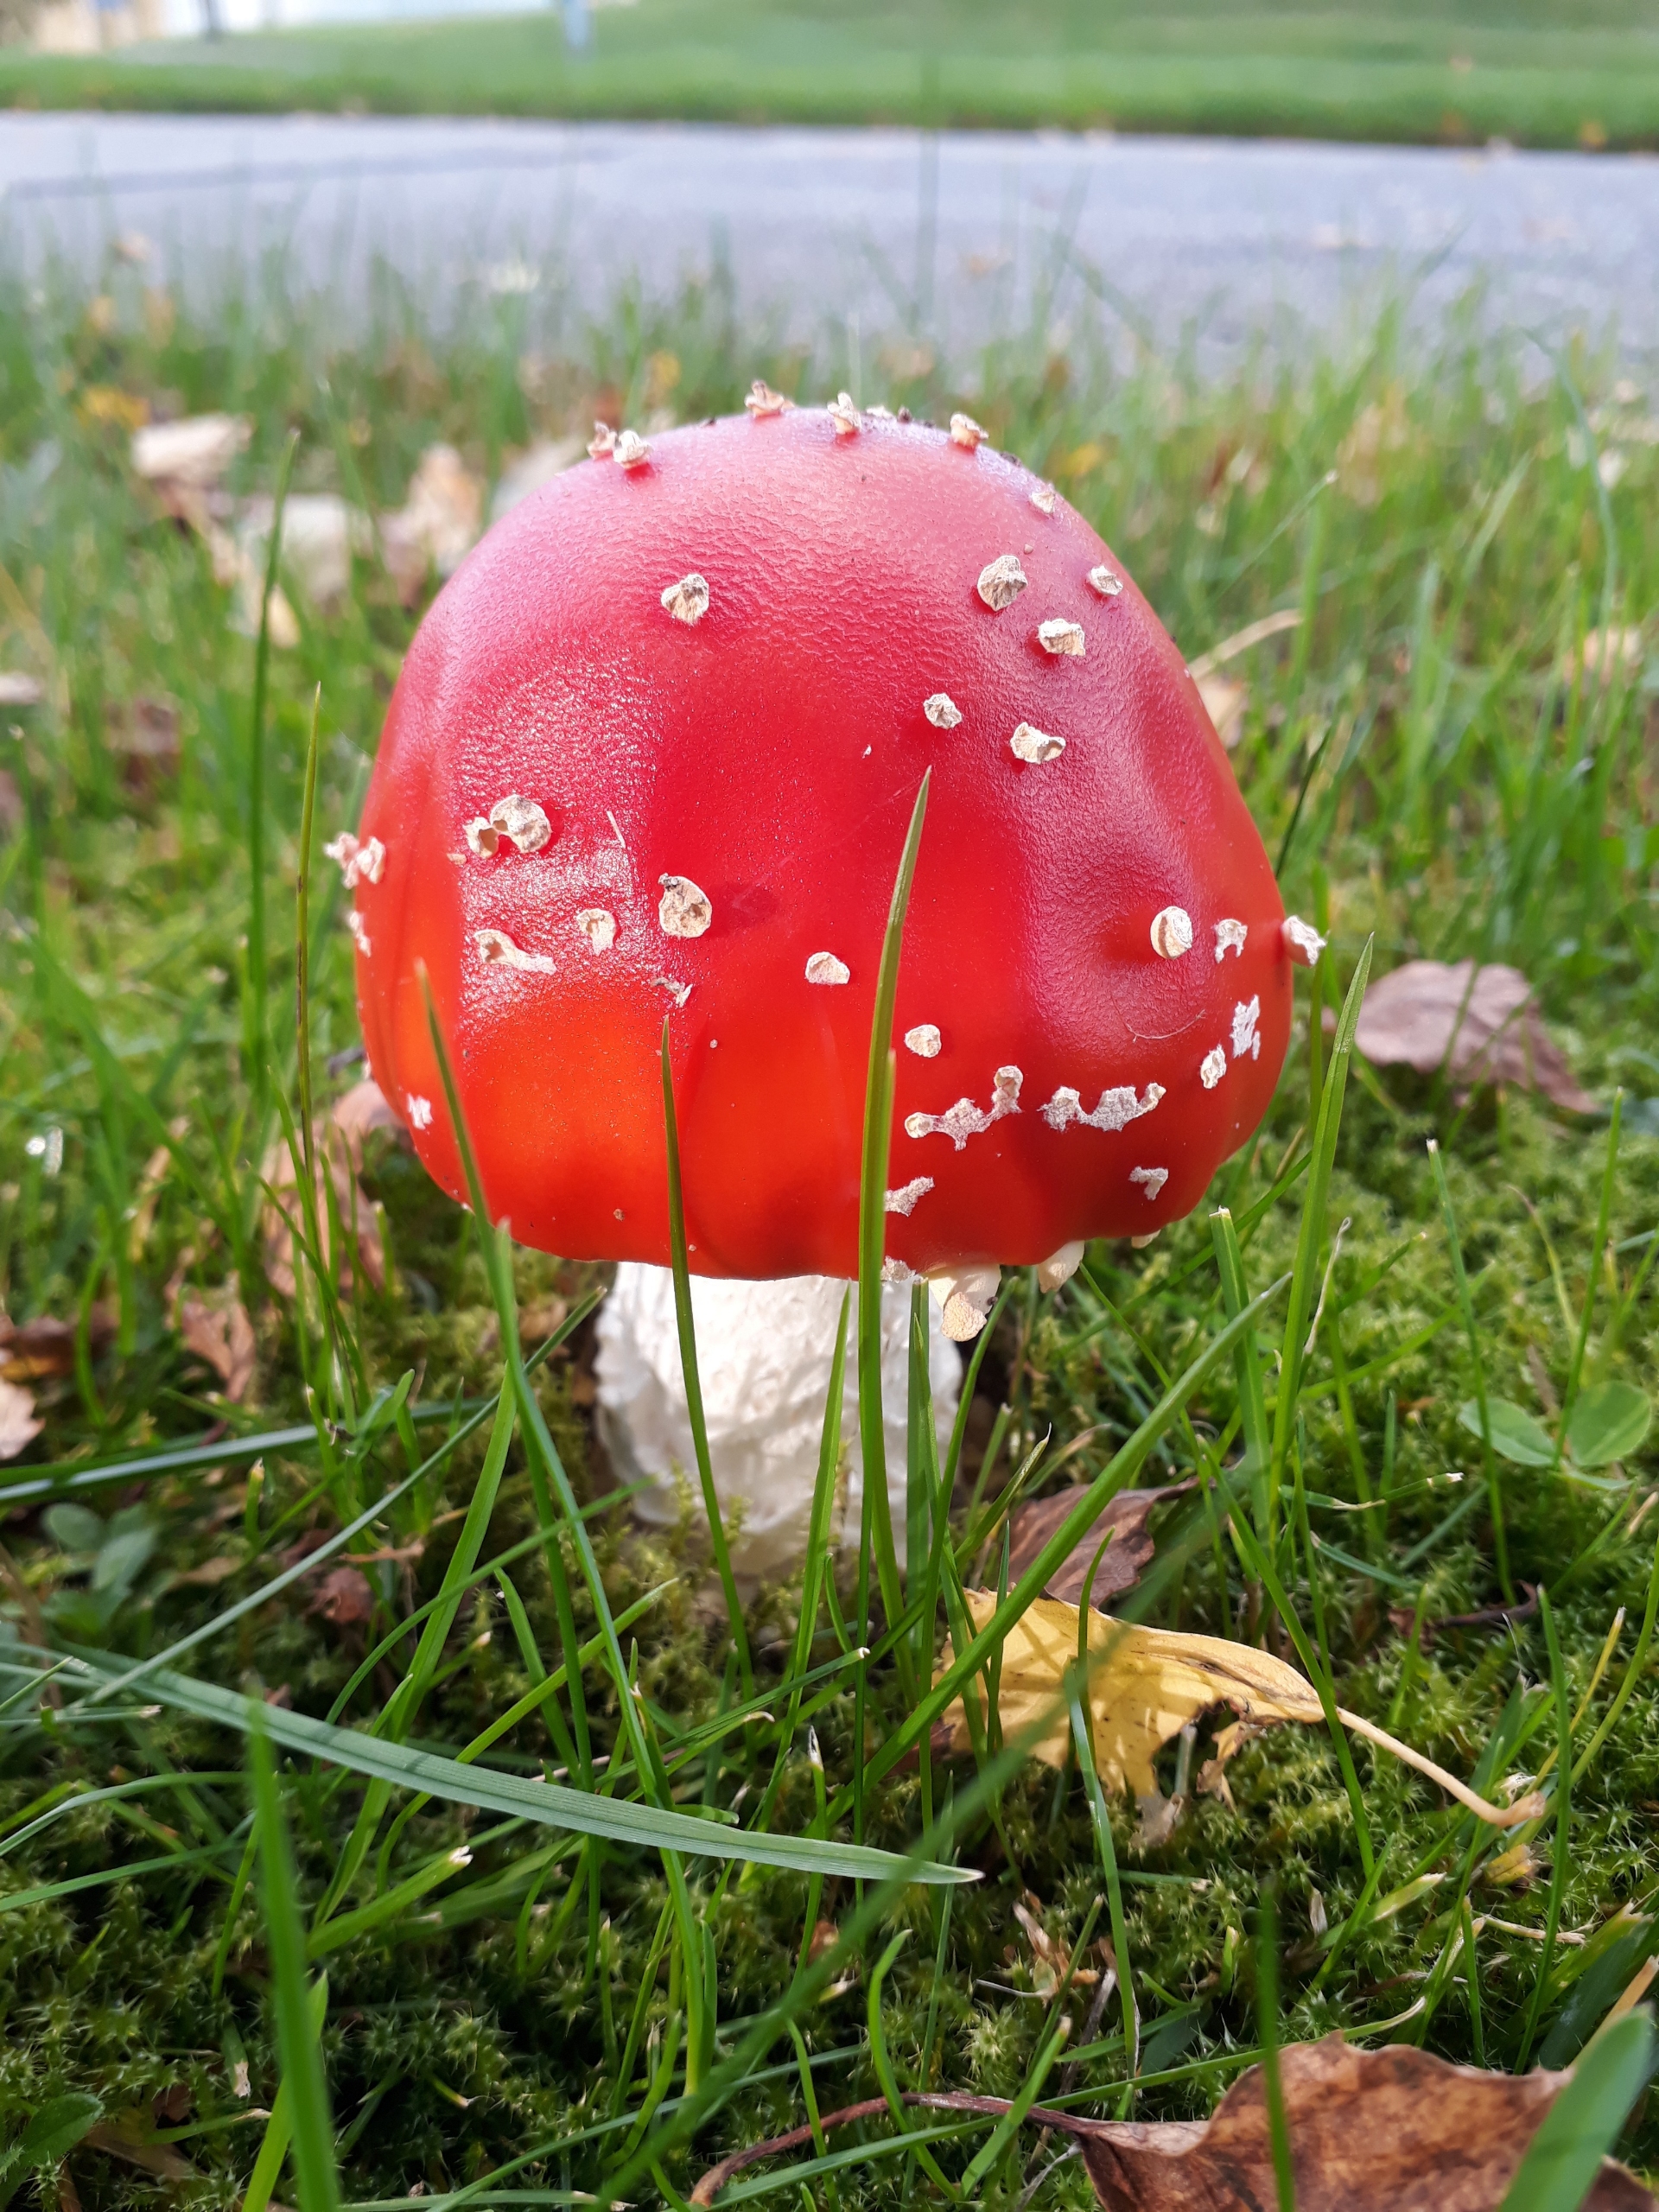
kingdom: Fungi
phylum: Basidiomycota
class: Agaricomycetes
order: Agaricales
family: Amanitaceae
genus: Amanita
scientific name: Amanita muscaria
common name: Rød fluesvamp
